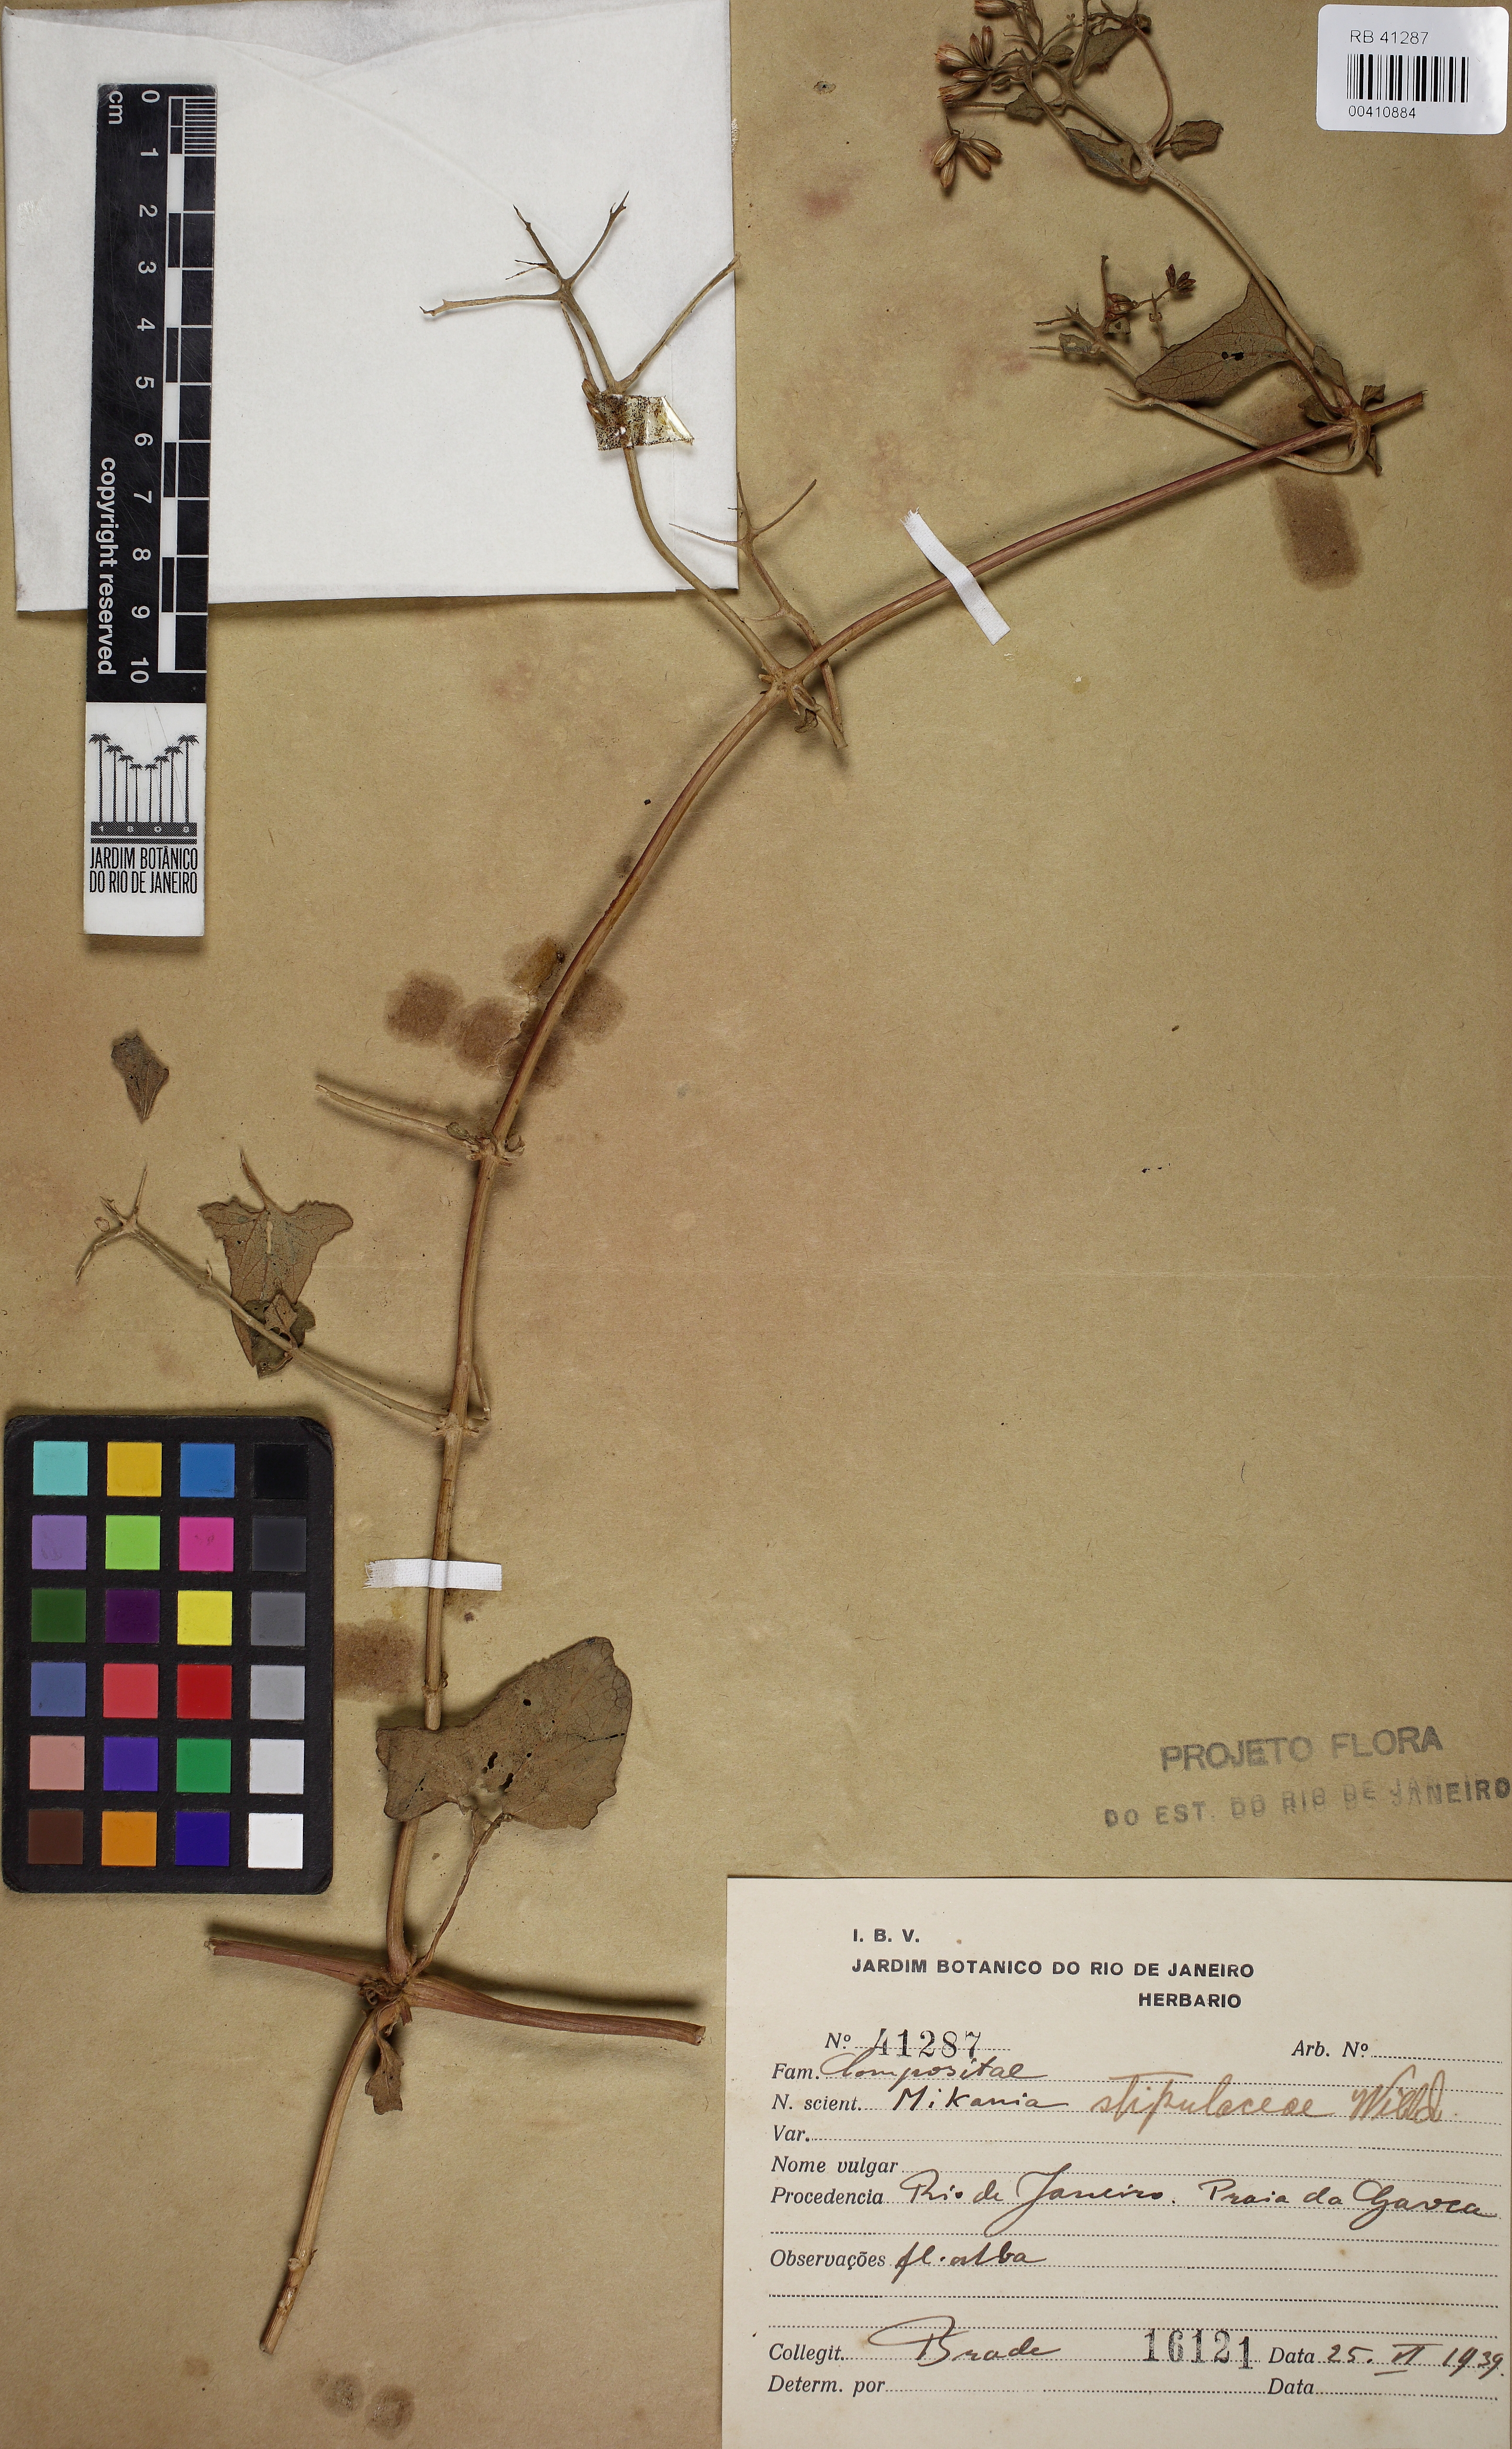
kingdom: Plantae
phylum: Tracheophyta
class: Magnoliopsida
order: Asterales
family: Asteraceae
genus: Mikania
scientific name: Mikania stipulacea
